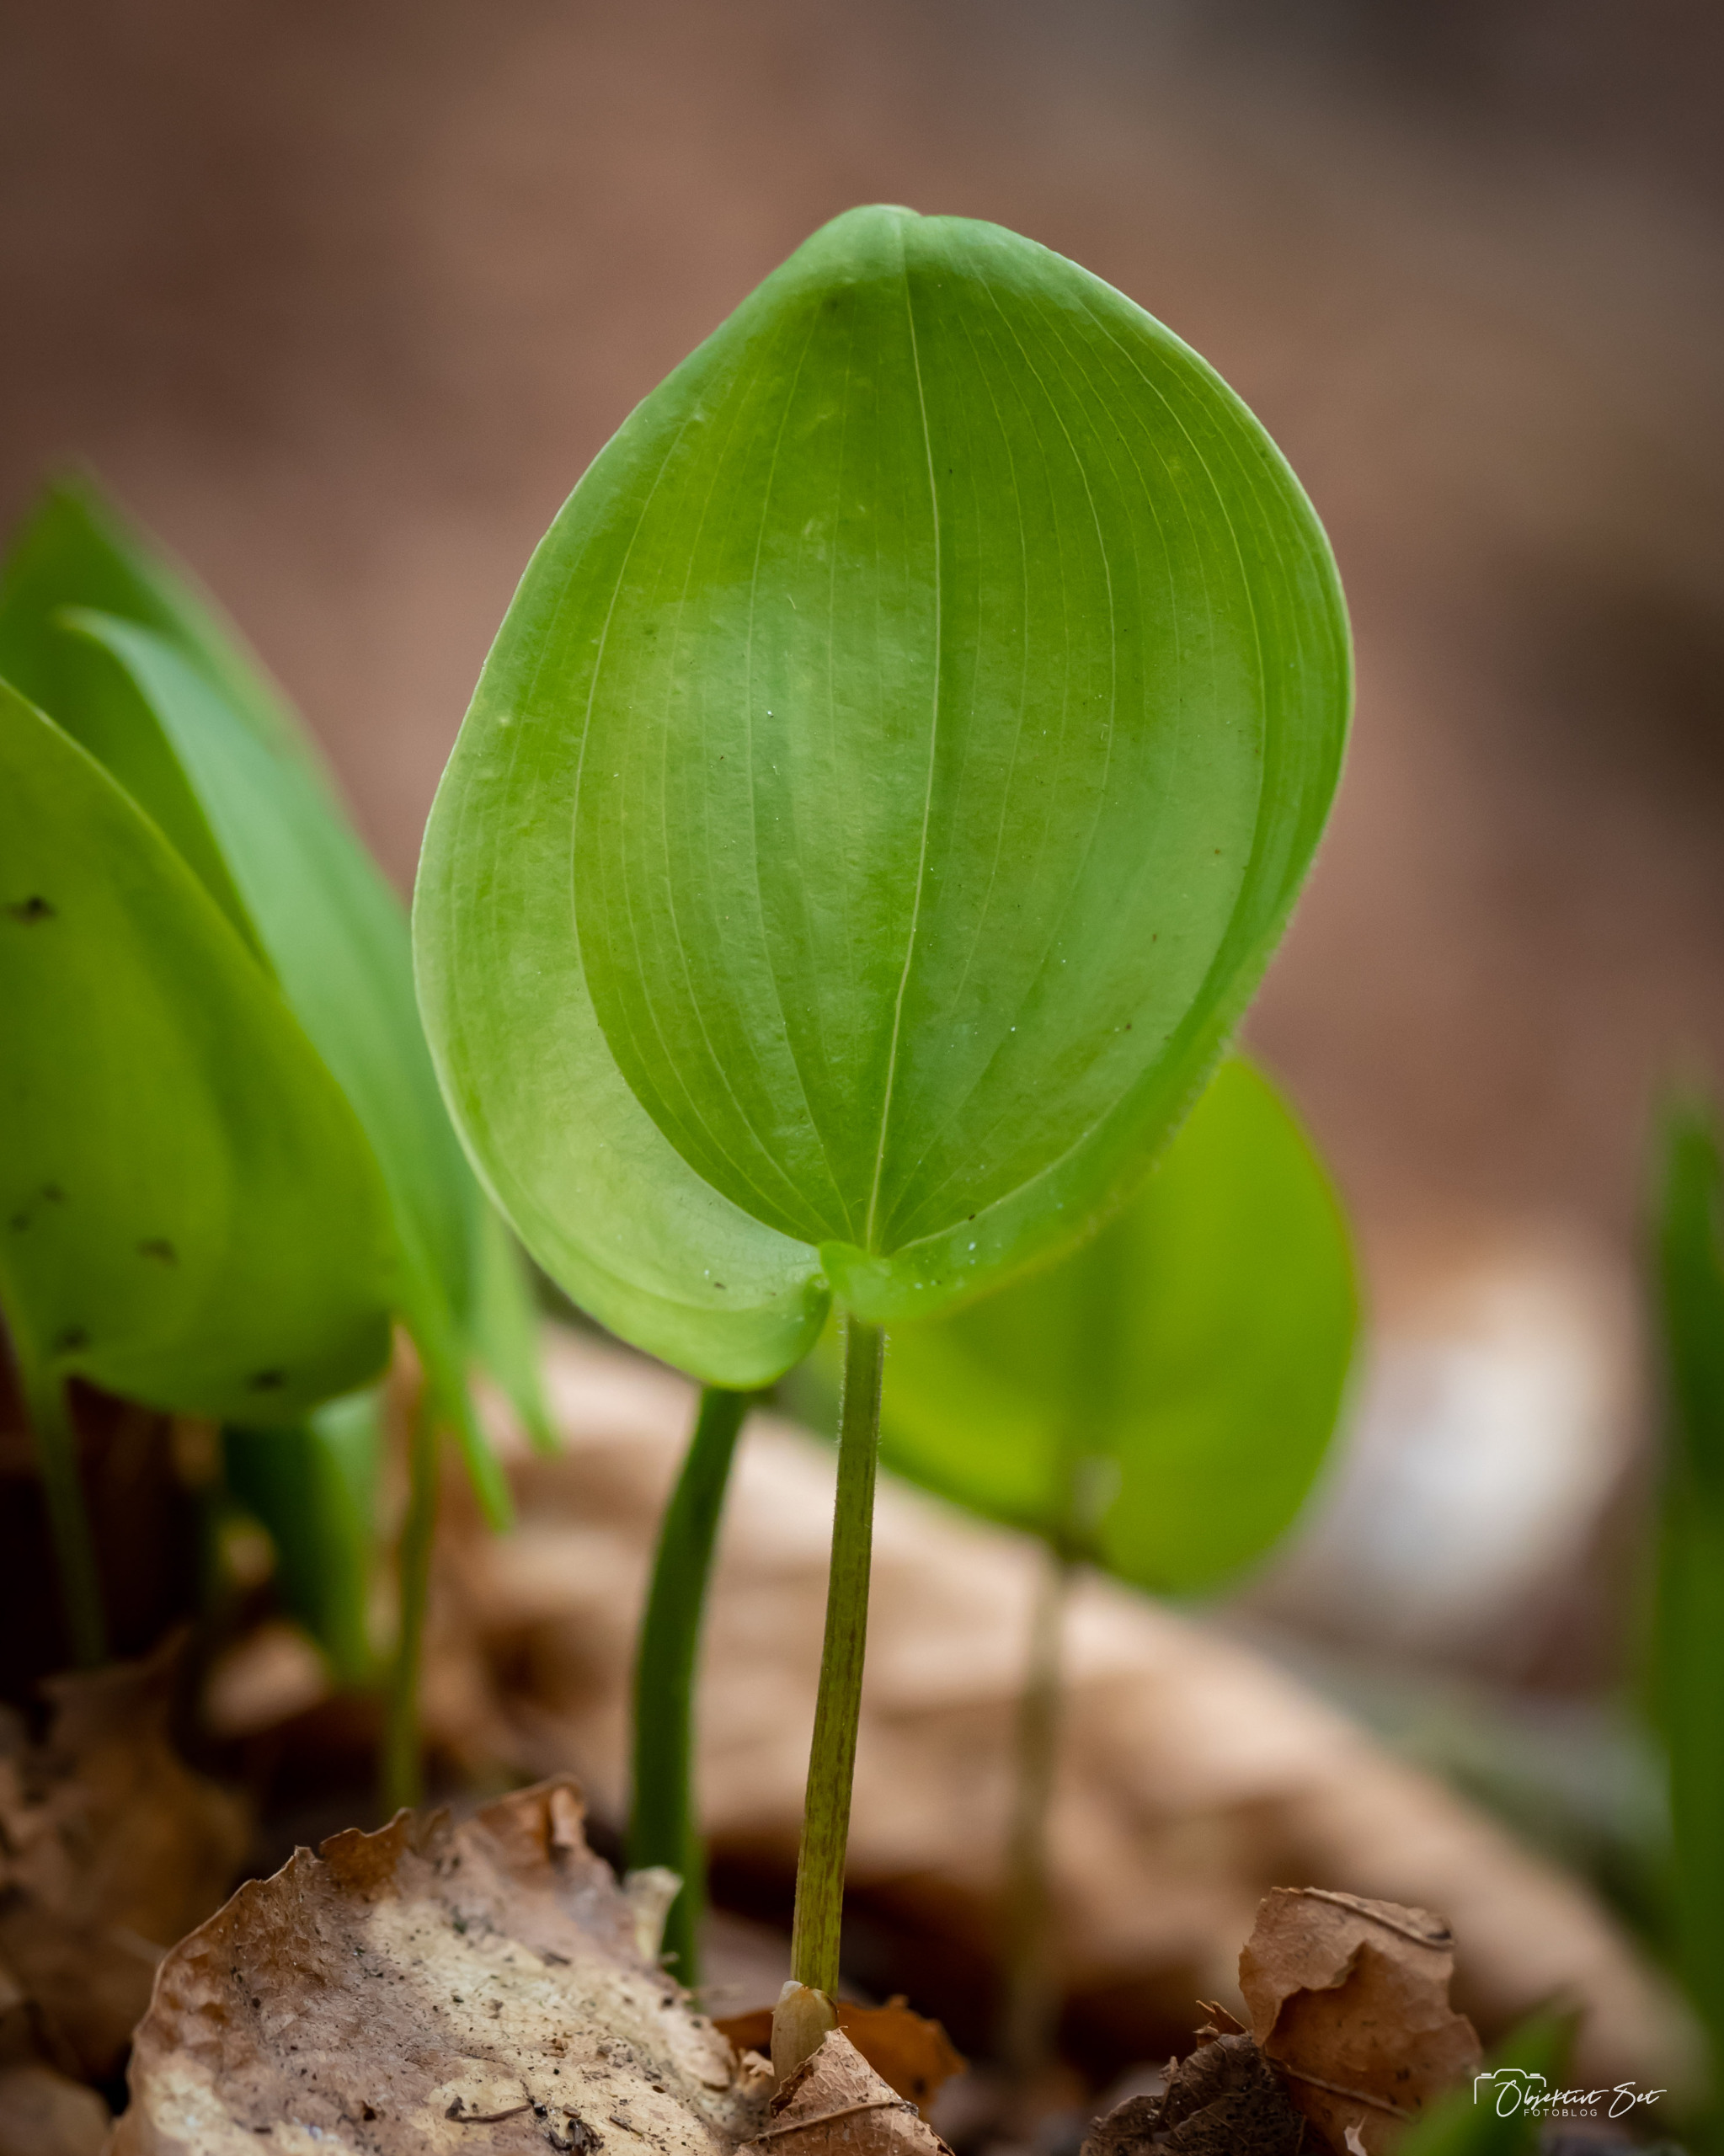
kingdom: Plantae
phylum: Tracheophyta
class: Liliopsida
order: Asparagales
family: Asparagaceae
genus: Maianthemum
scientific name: Maianthemum bifolium
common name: Majblomst
